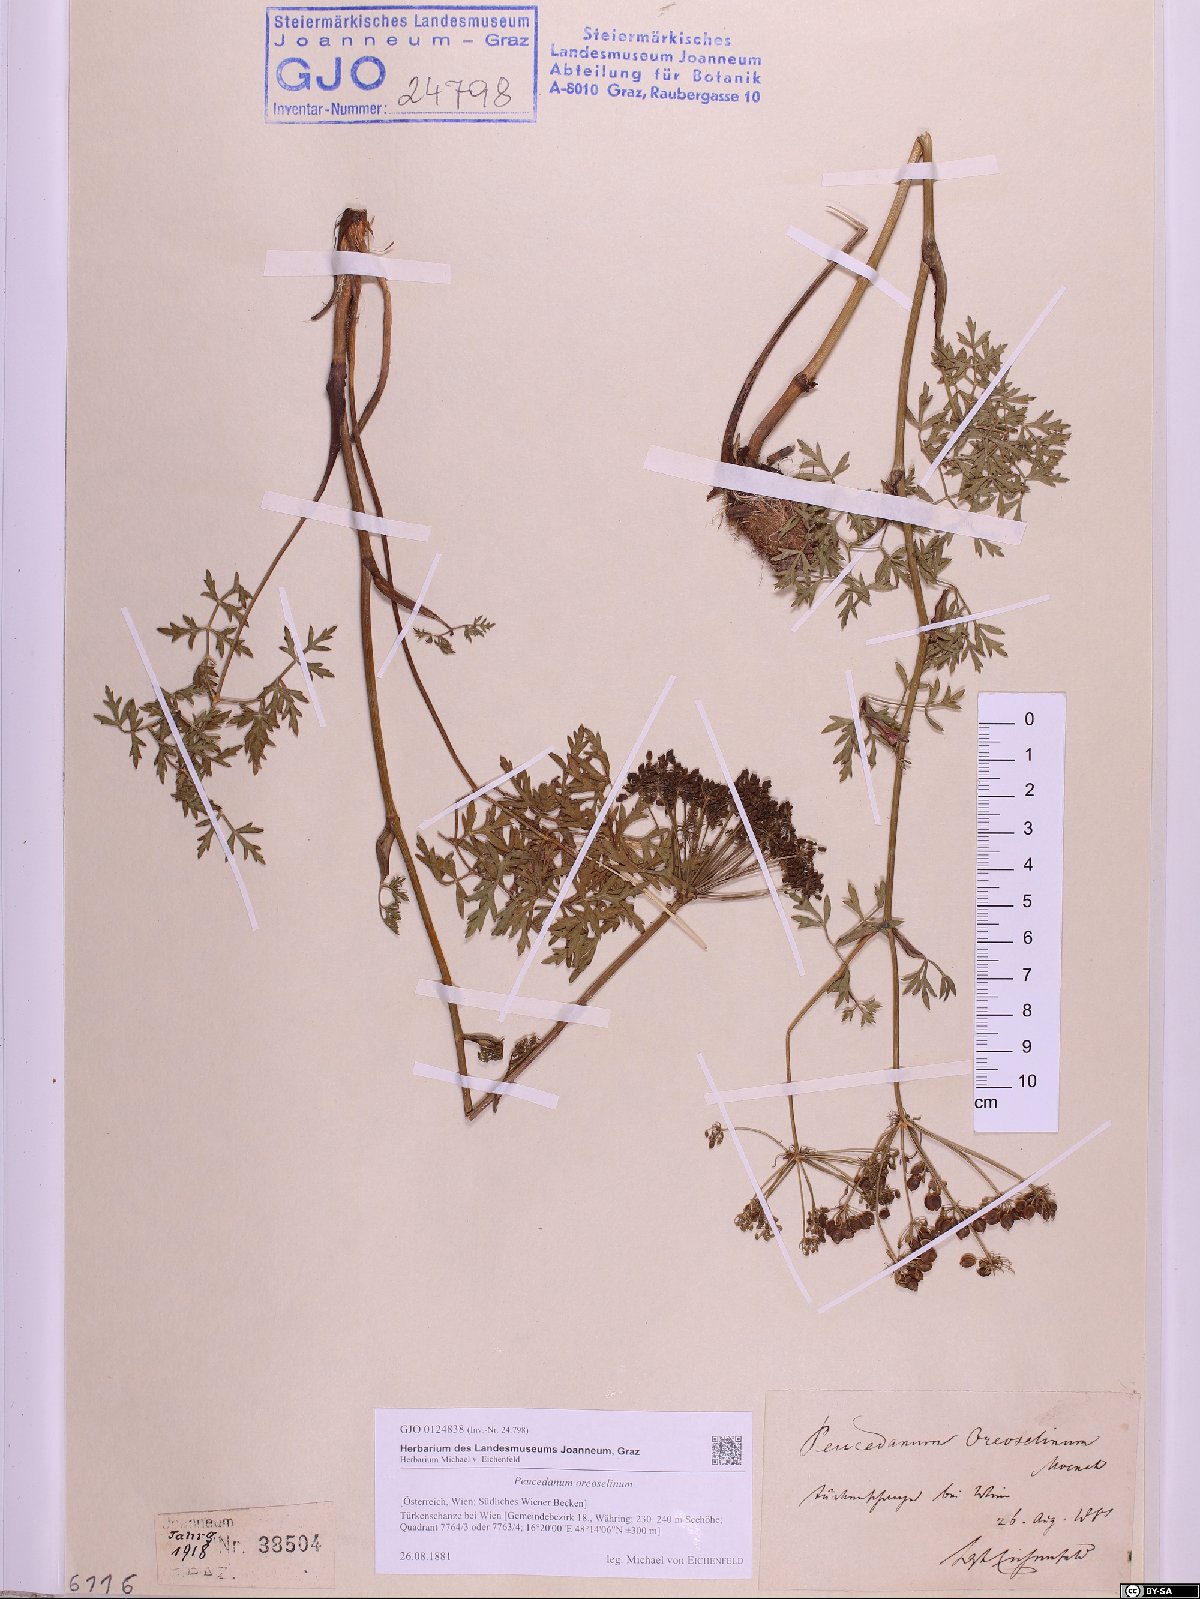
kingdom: Plantae
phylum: Tracheophyta
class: Magnoliopsida
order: Apiales
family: Apiaceae
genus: Oreoselinum
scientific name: Oreoselinum nigrum
